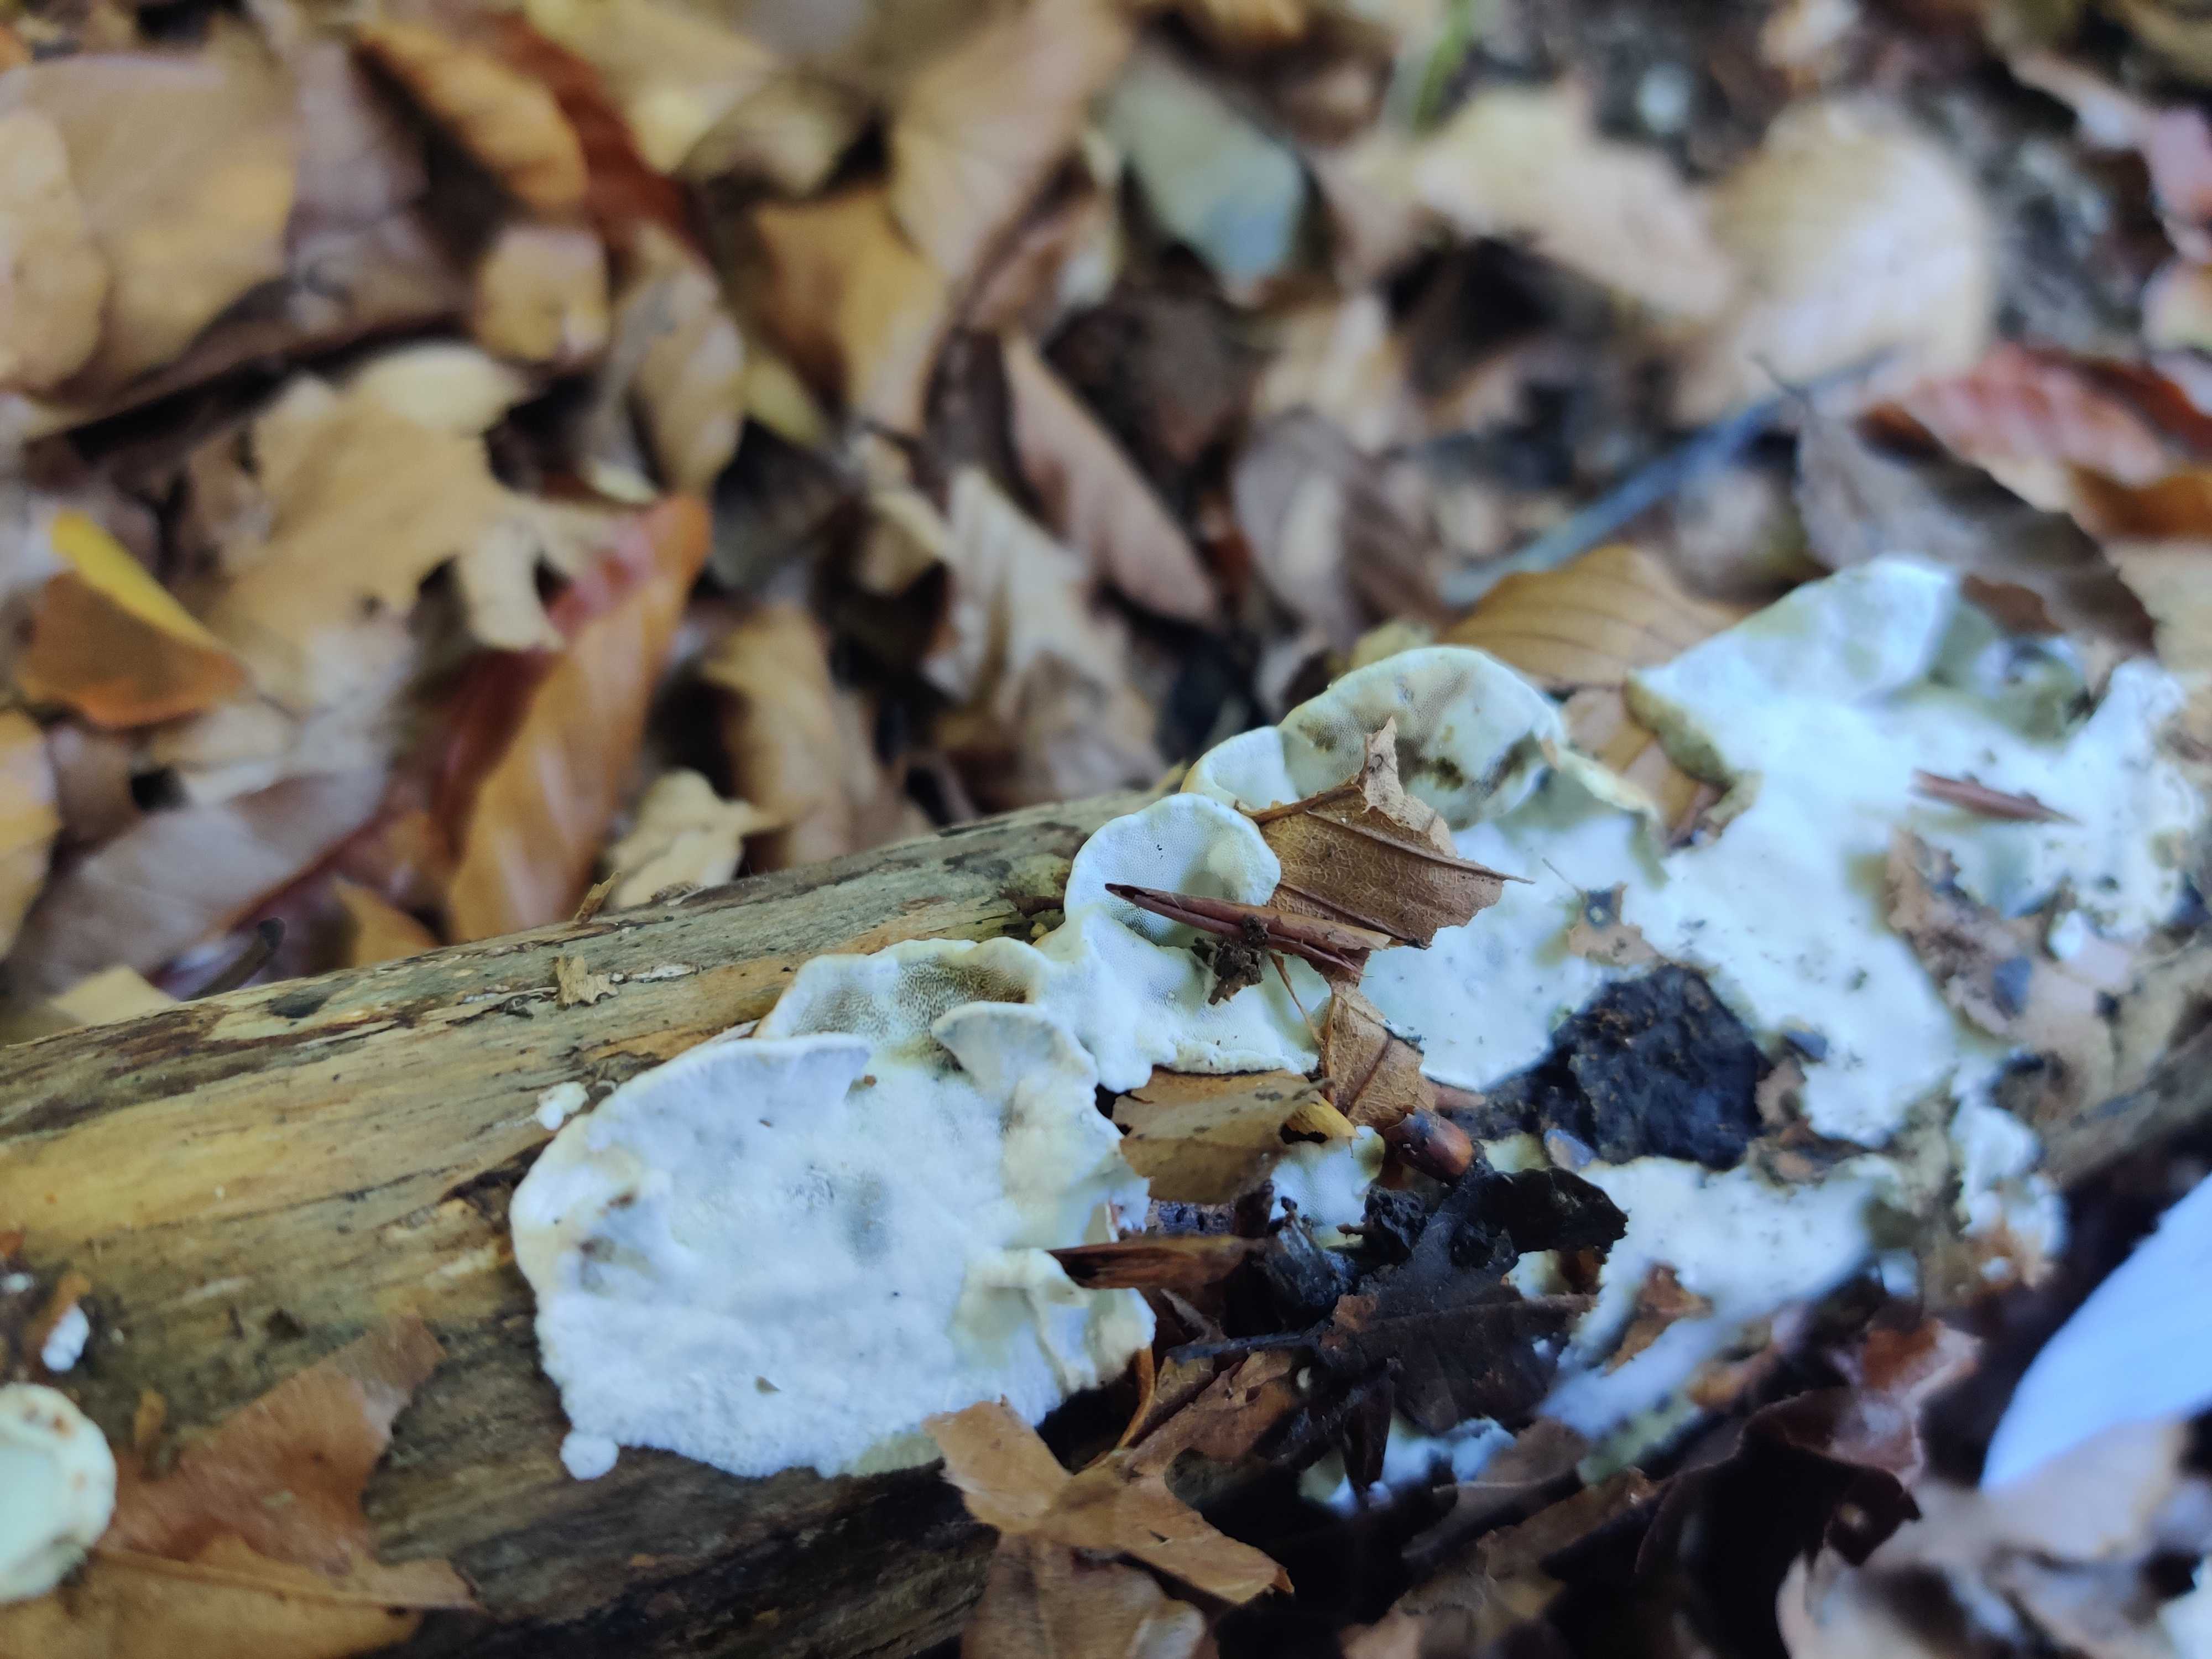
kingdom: Fungi
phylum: Basidiomycota
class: Agaricomycetes
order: Polyporales
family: Incrustoporiaceae
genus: Skeletocutis
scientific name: Skeletocutis nemoralis
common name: stor krystalporesvamp
